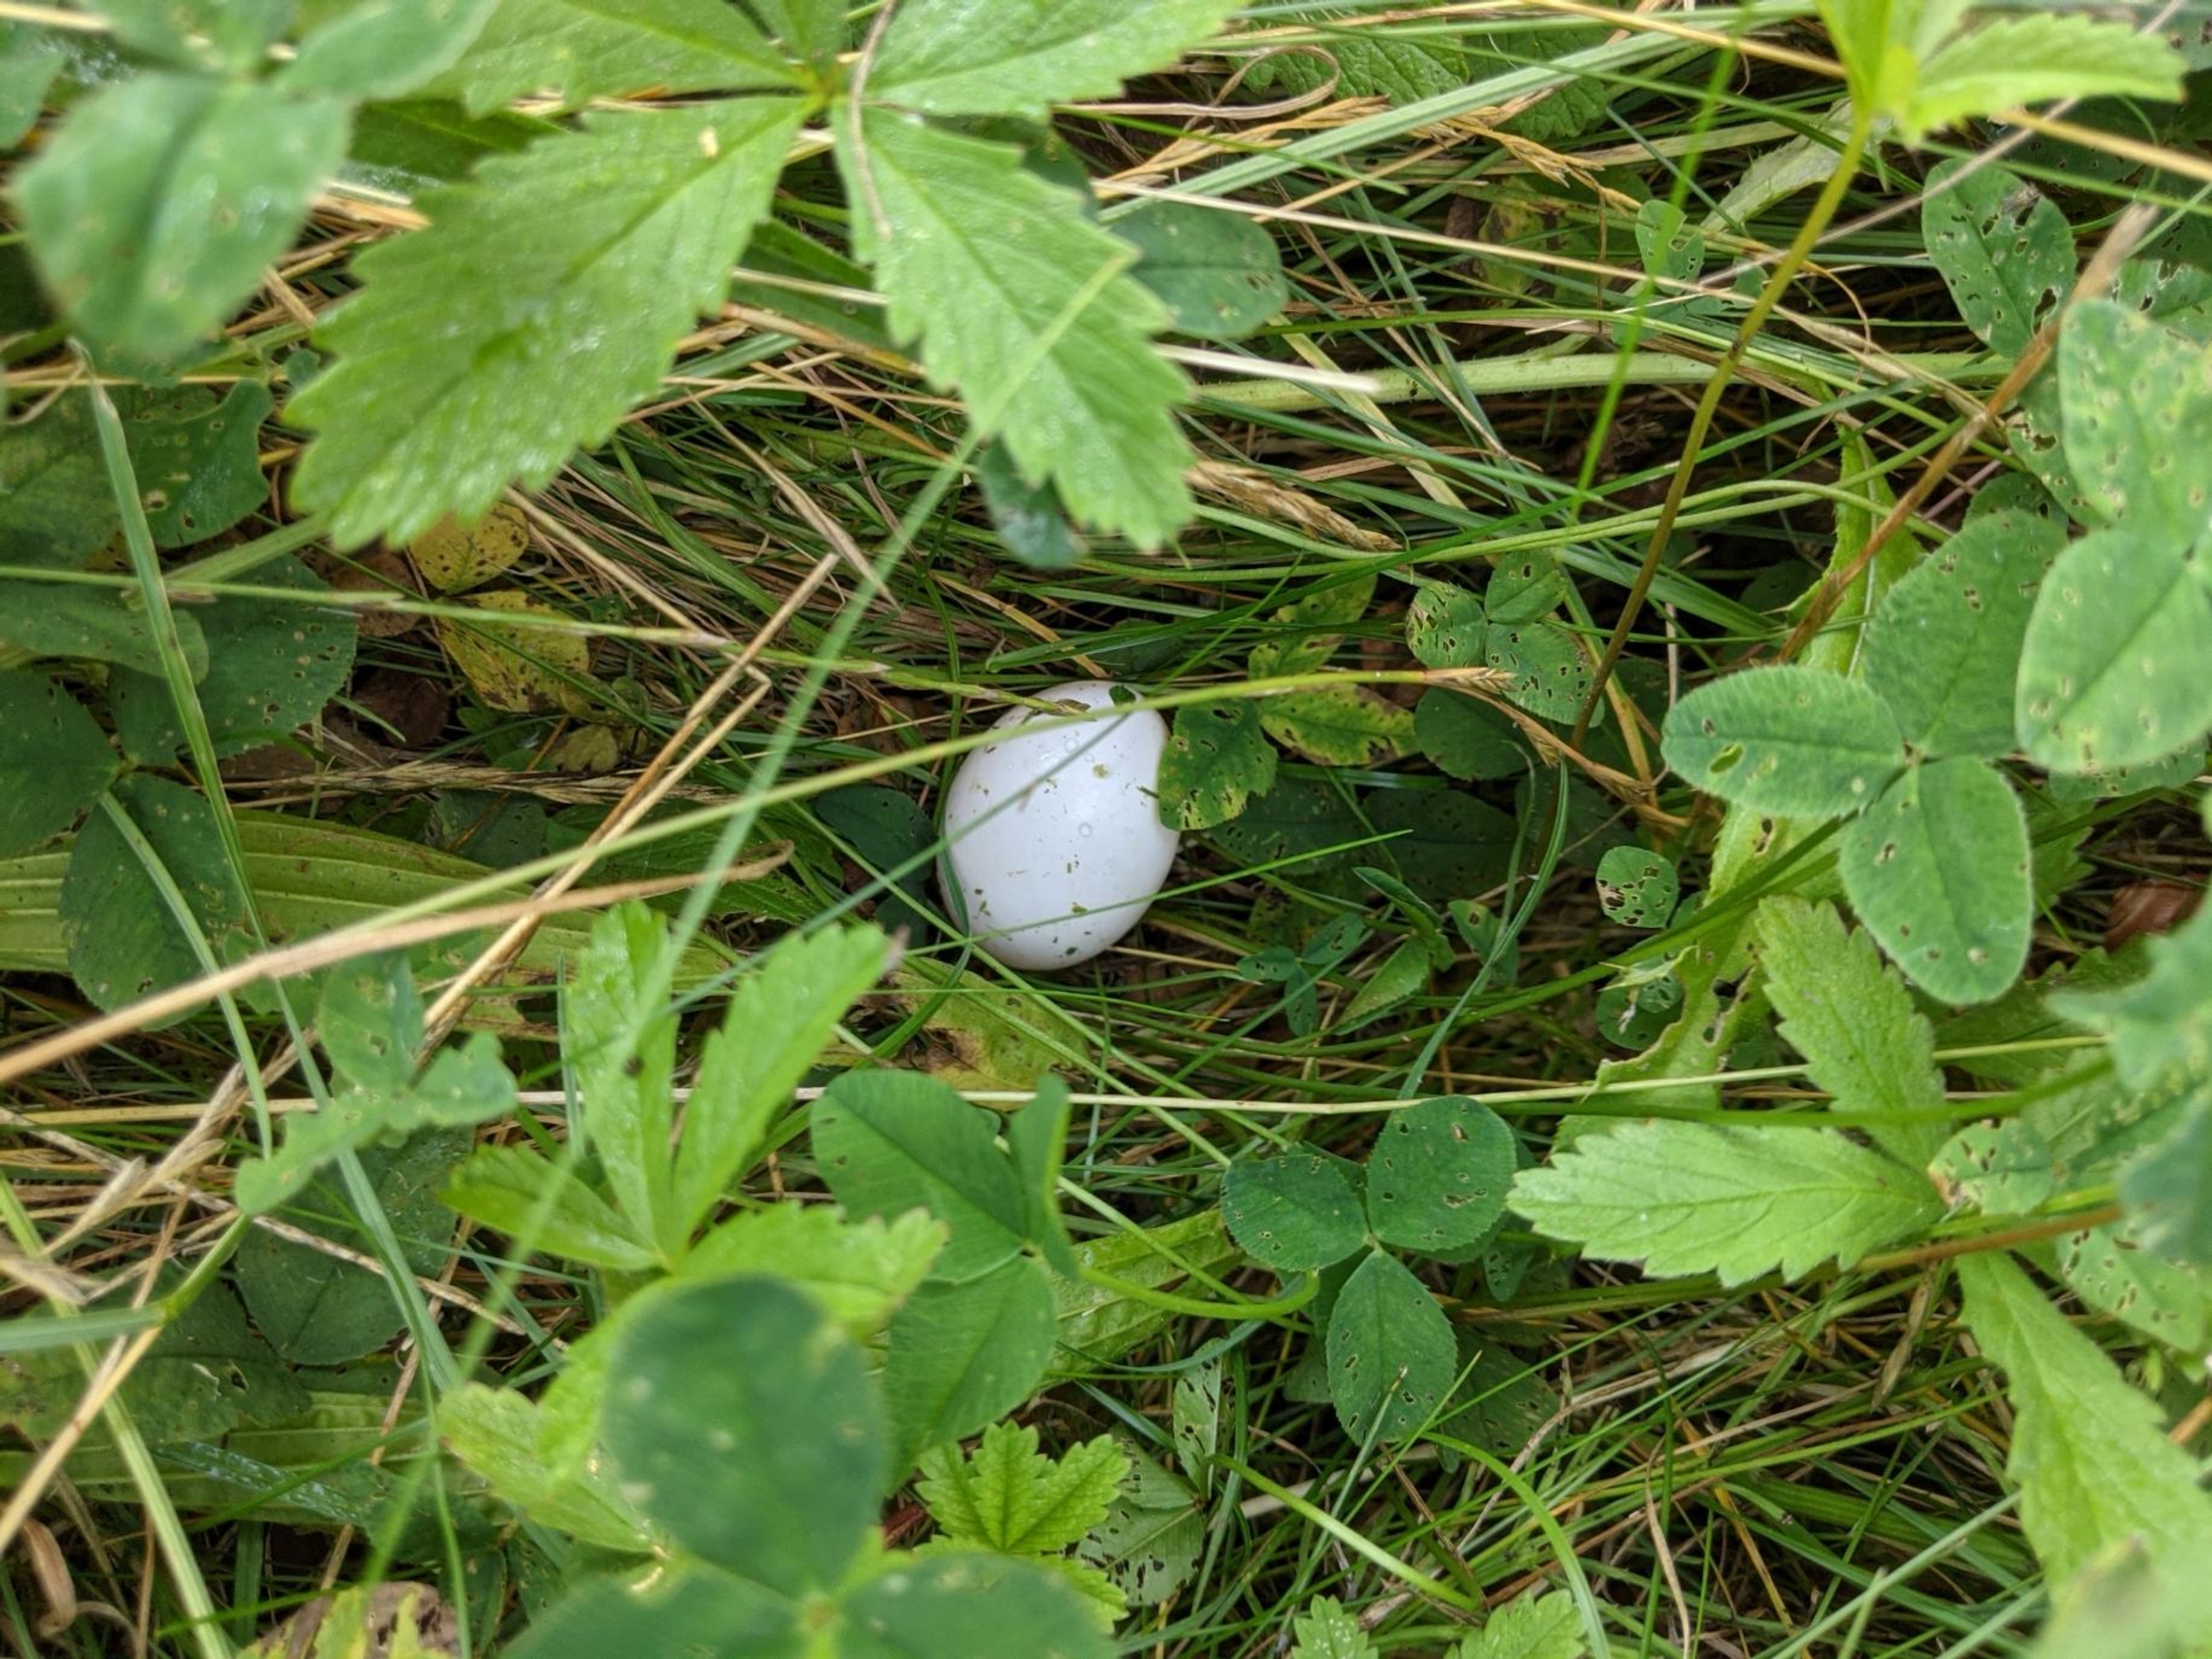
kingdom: Animalia
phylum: Chordata
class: Aves
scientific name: Aves
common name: Fugle
